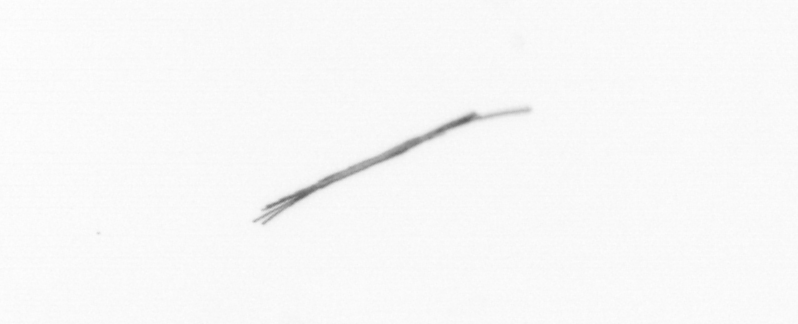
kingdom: Bacteria
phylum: Cyanobacteria
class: Cyanobacteriia
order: Cyanobacteriales
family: Microcoleaceae
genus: Trichodesmium
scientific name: Trichodesmium
